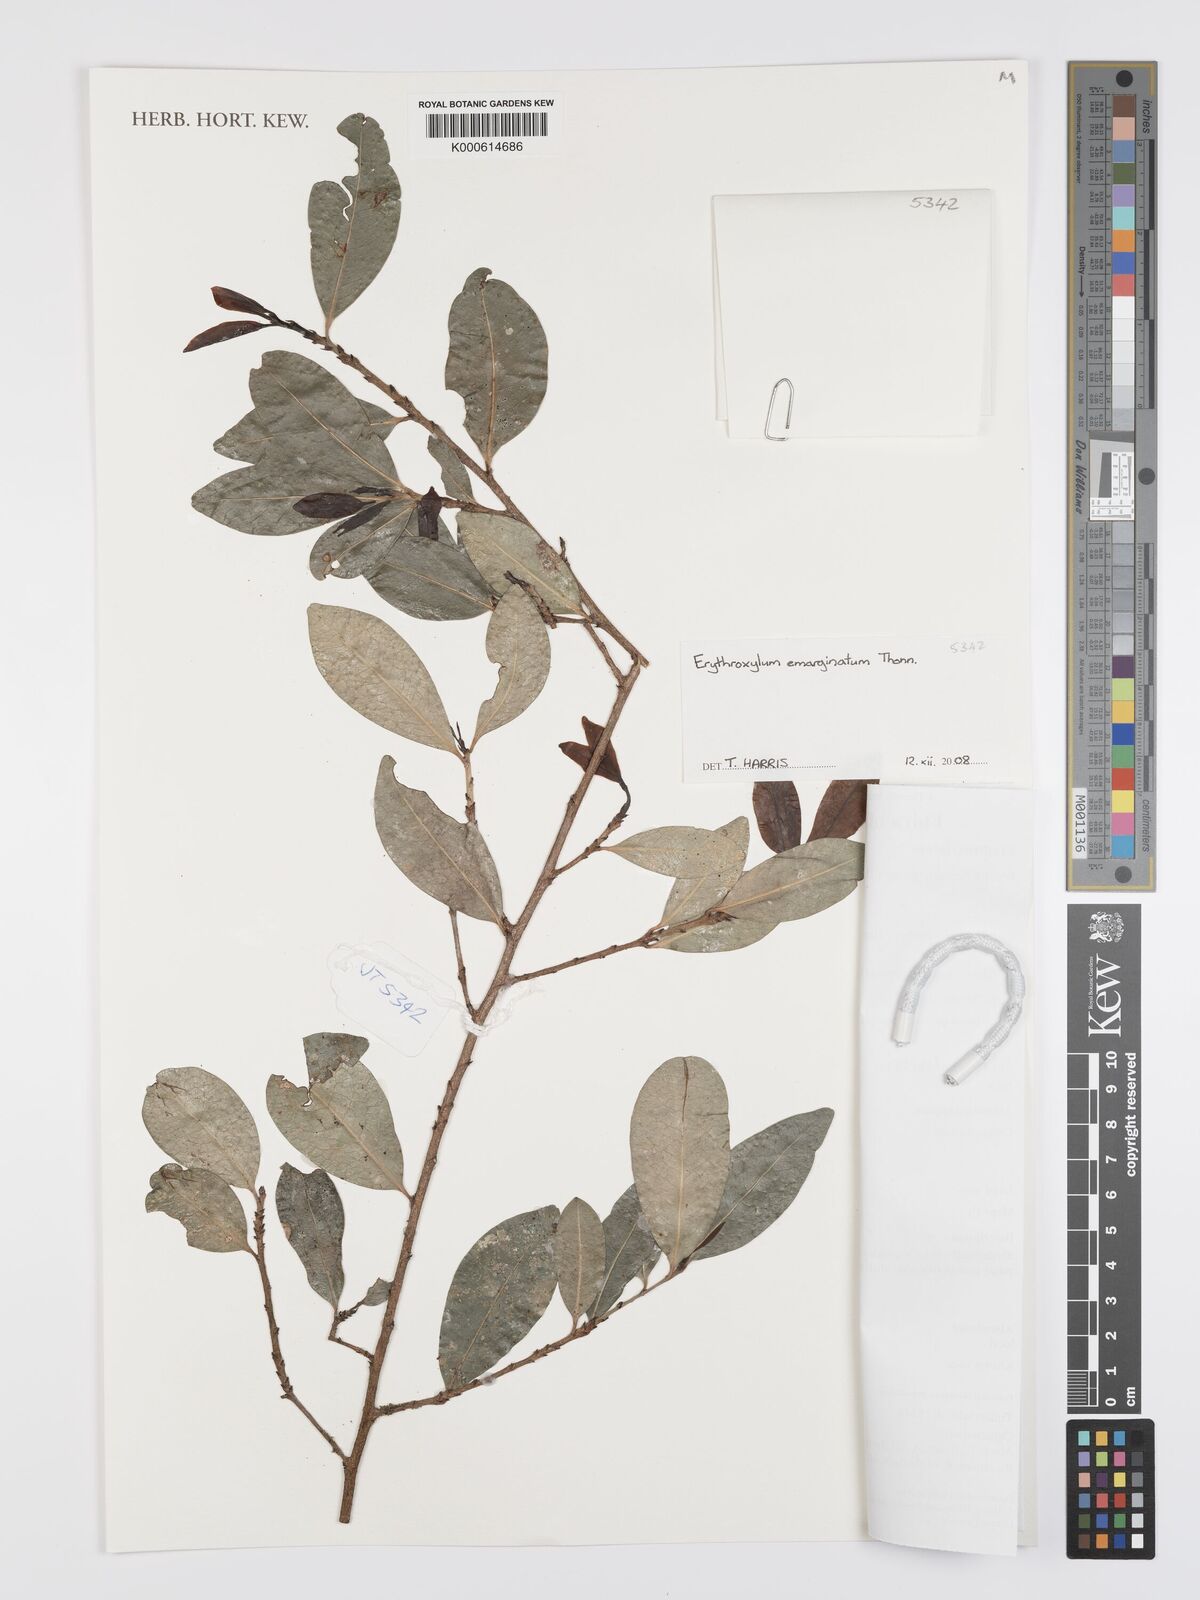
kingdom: Plantae
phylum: Tracheophyta
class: Magnoliopsida
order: Malpighiales
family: Erythroxylaceae
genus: Erythroxylum
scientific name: Erythroxylum emarginatum
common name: African coca-tree
